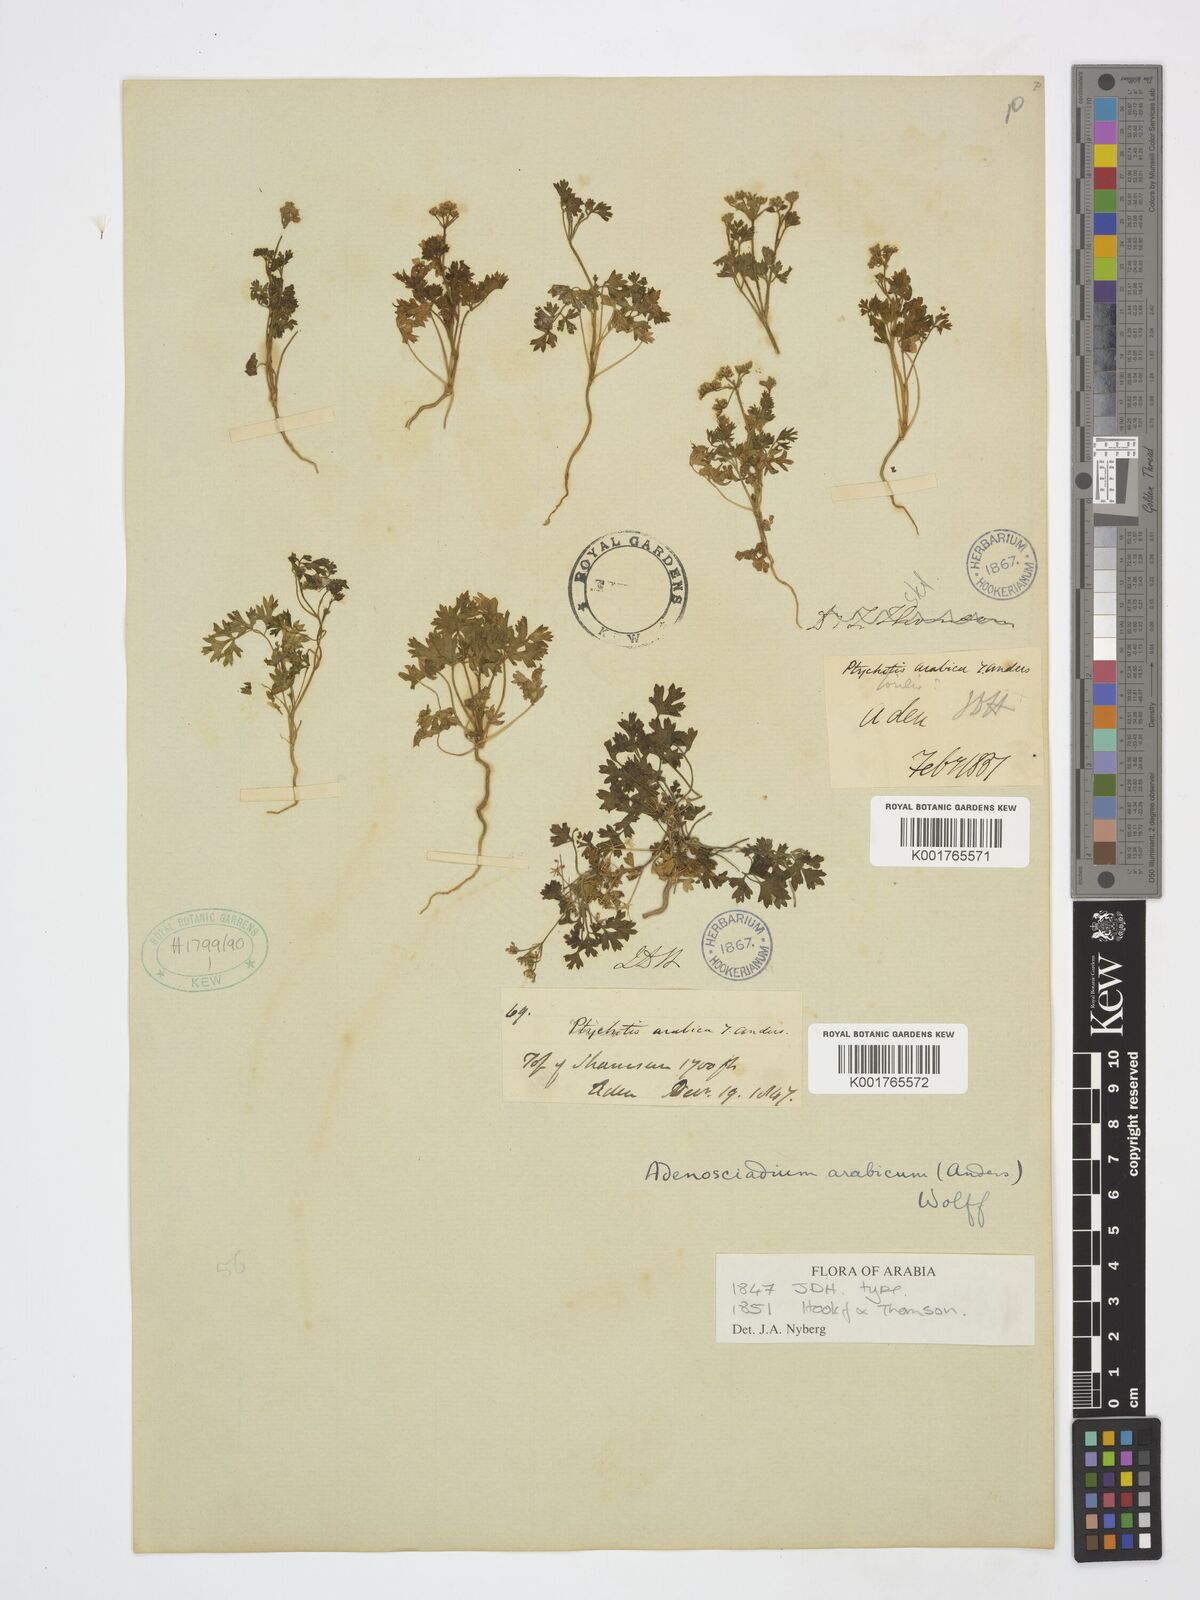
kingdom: Plantae
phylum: Tracheophyta
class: Magnoliopsida
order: Apiales
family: Apiaceae
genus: Adenosciadium
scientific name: Adenosciadium arabicum
